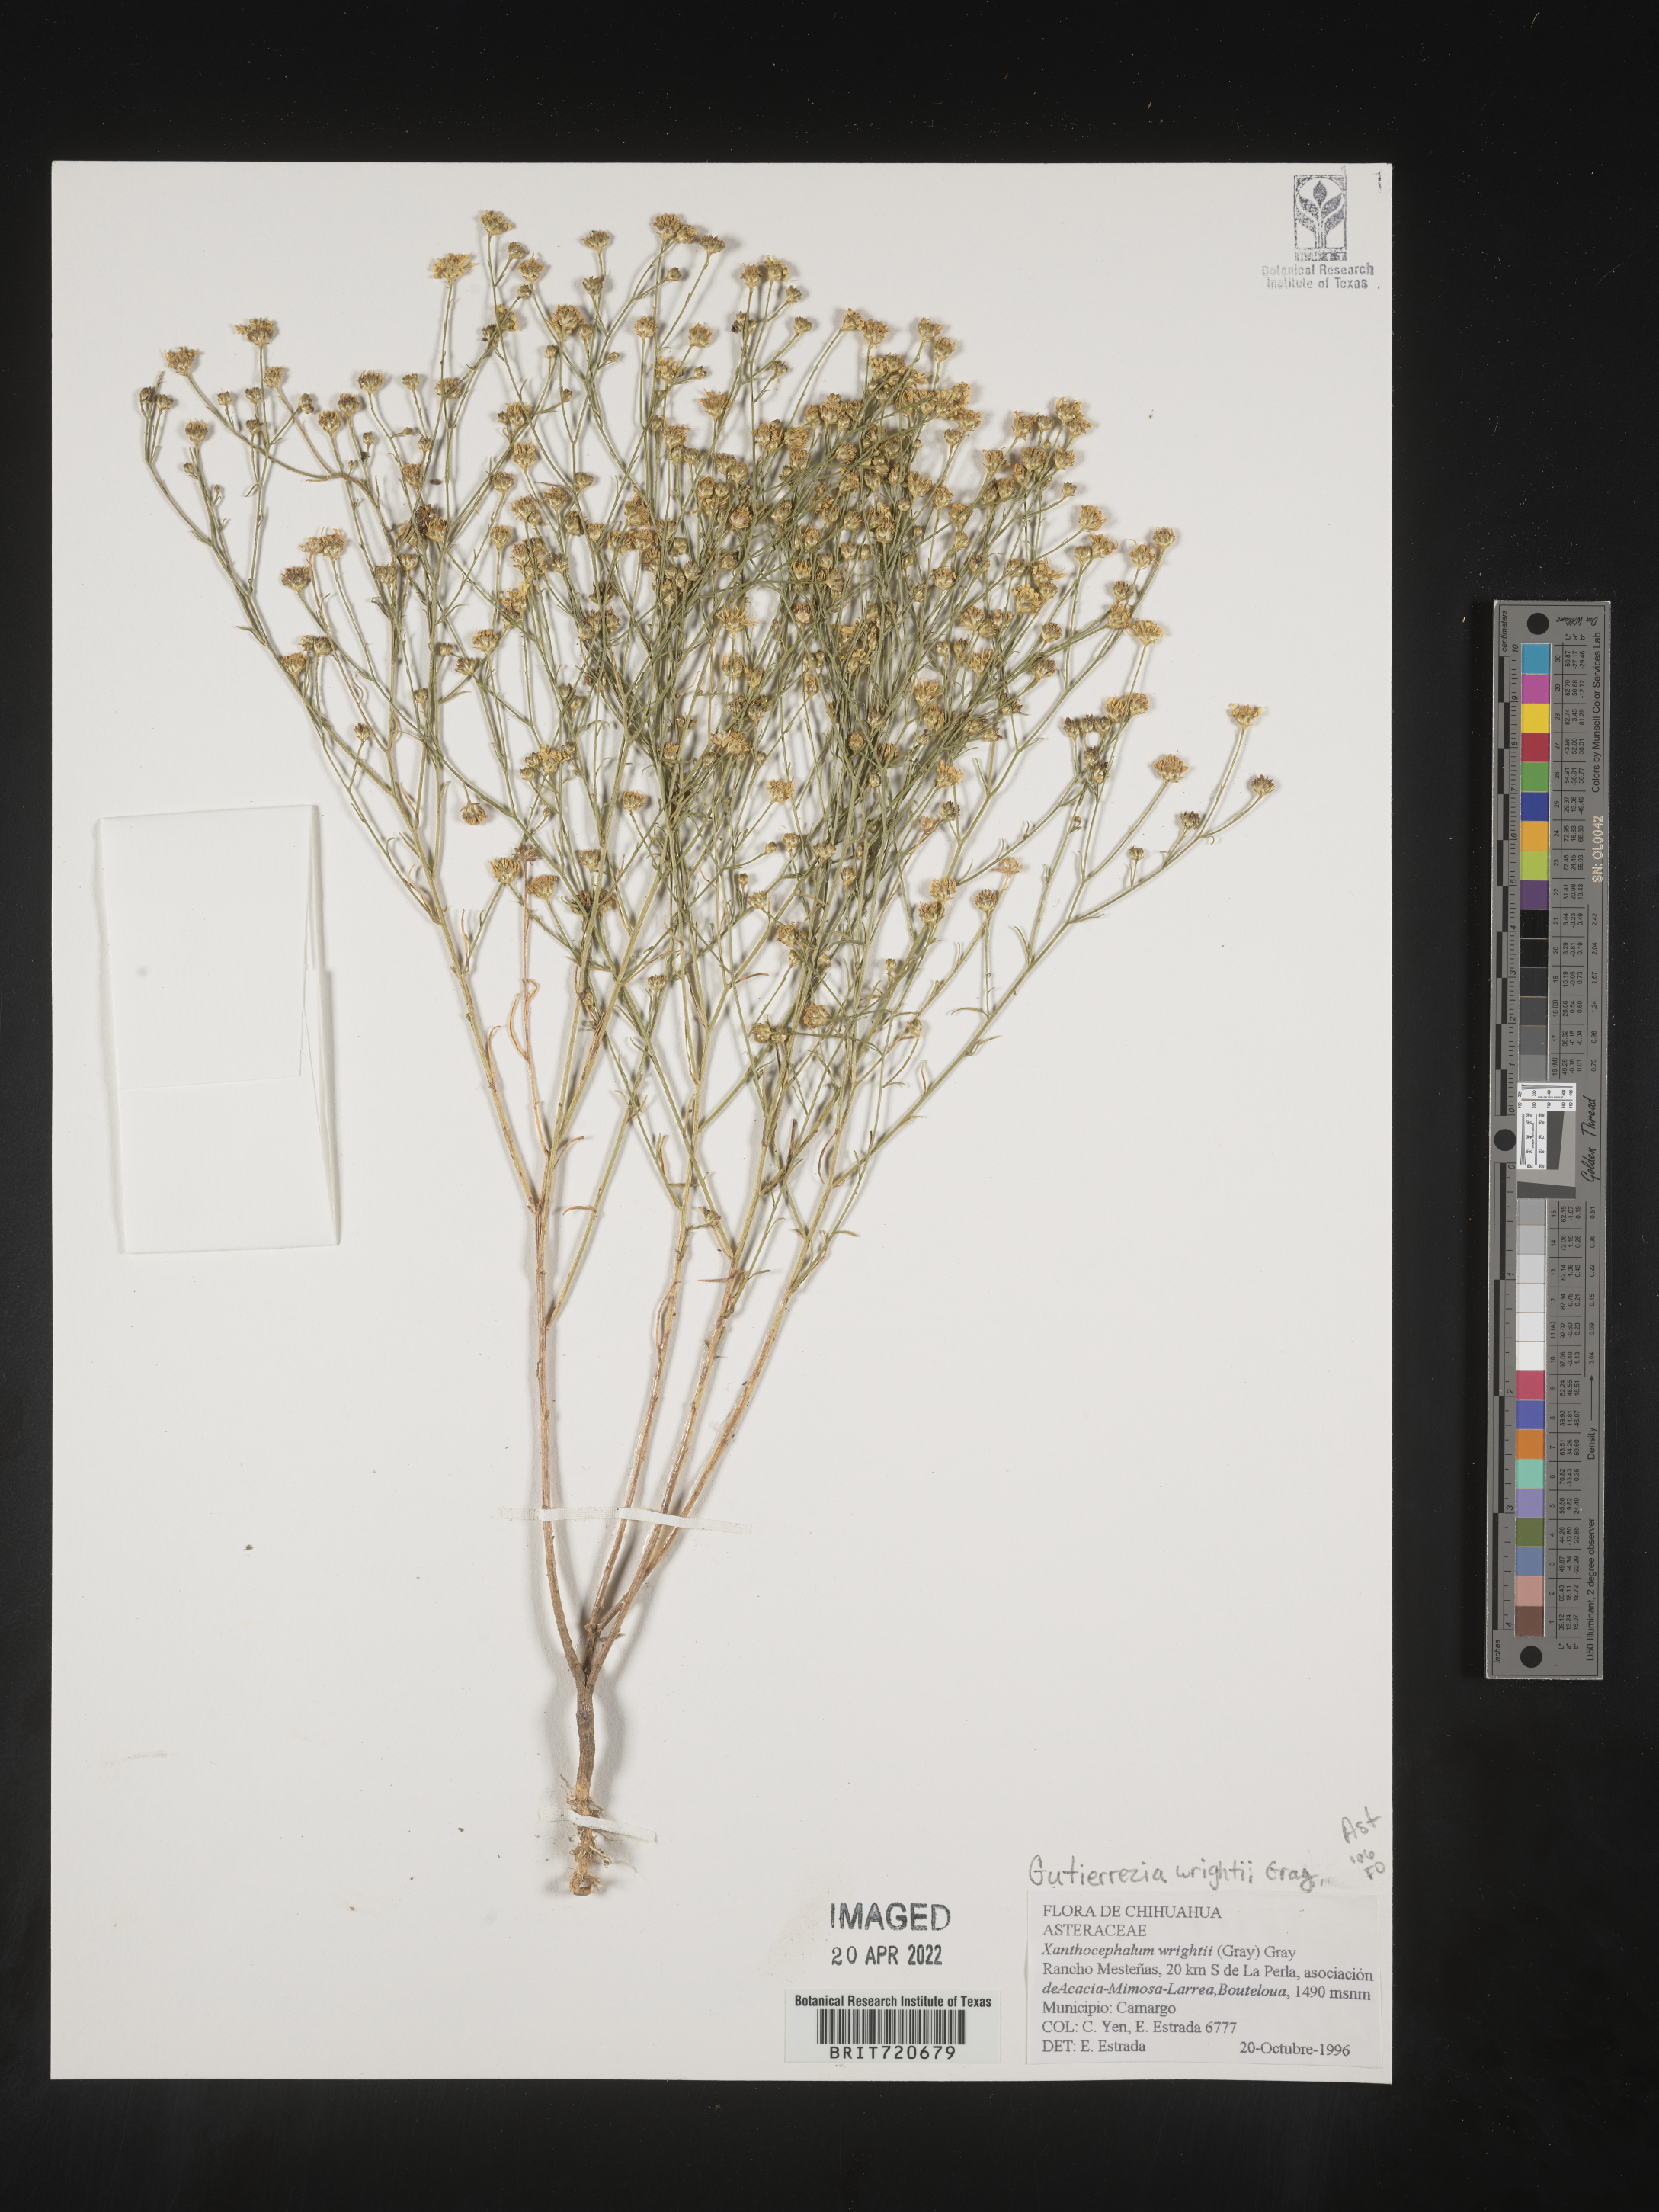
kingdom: Plantae
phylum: Tracheophyta
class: Magnoliopsida
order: Asterales
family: Asteraceae
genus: Gutierrezia
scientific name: Gutierrezia
